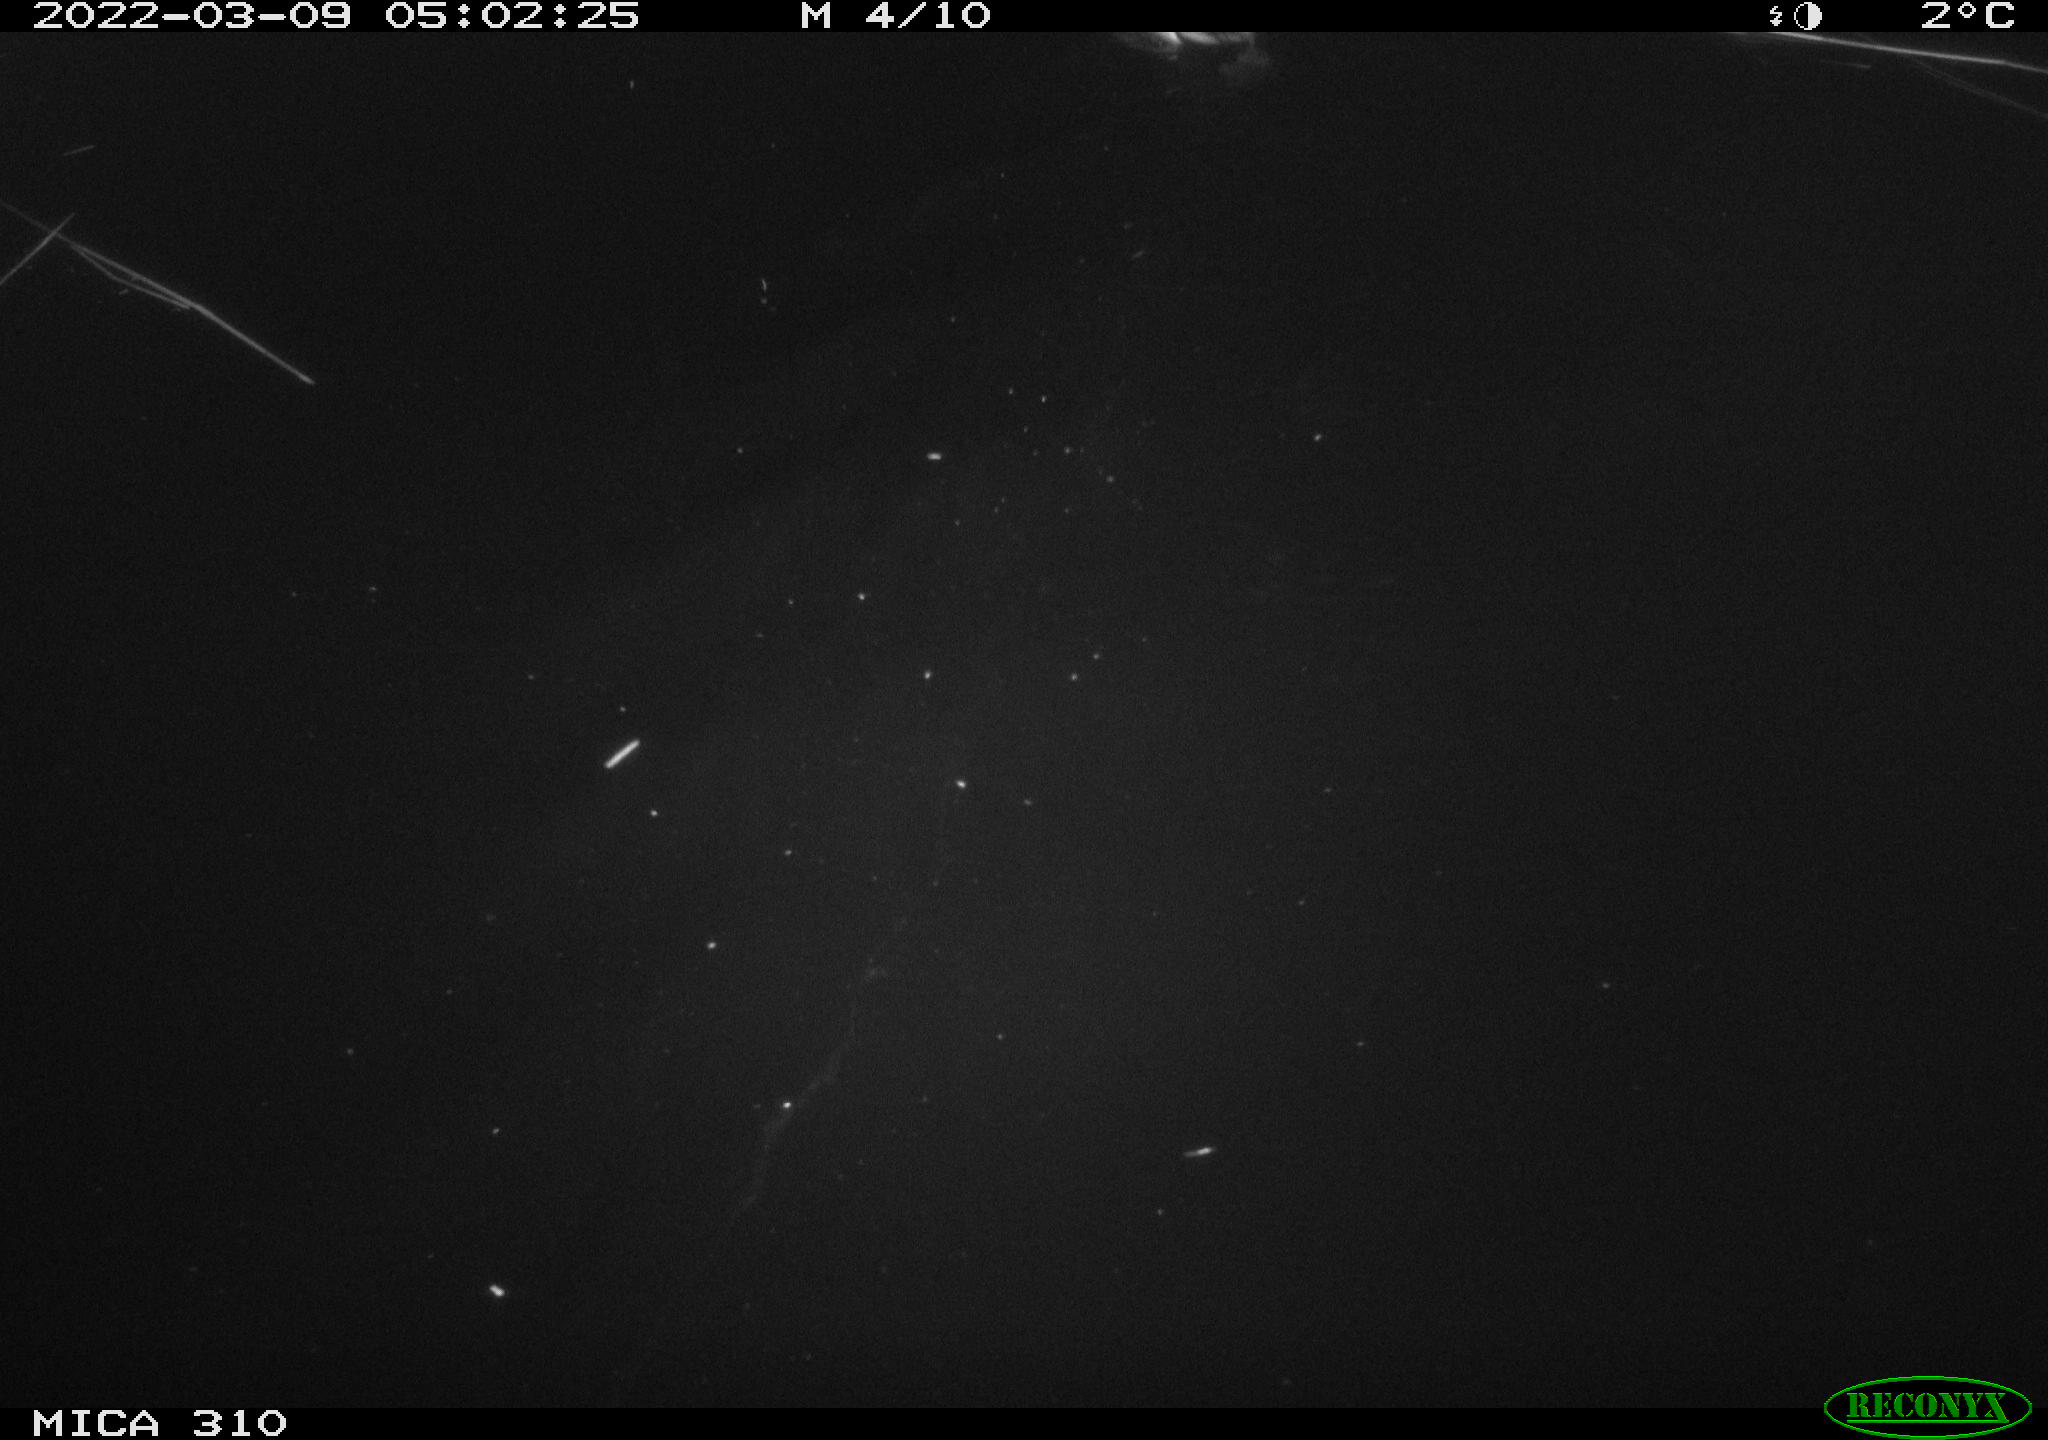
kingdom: Animalia
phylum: Chordata
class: Aves
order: Anseriformes
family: Anatidae
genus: Anas
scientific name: Anas platyrhynchos
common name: Mallard
